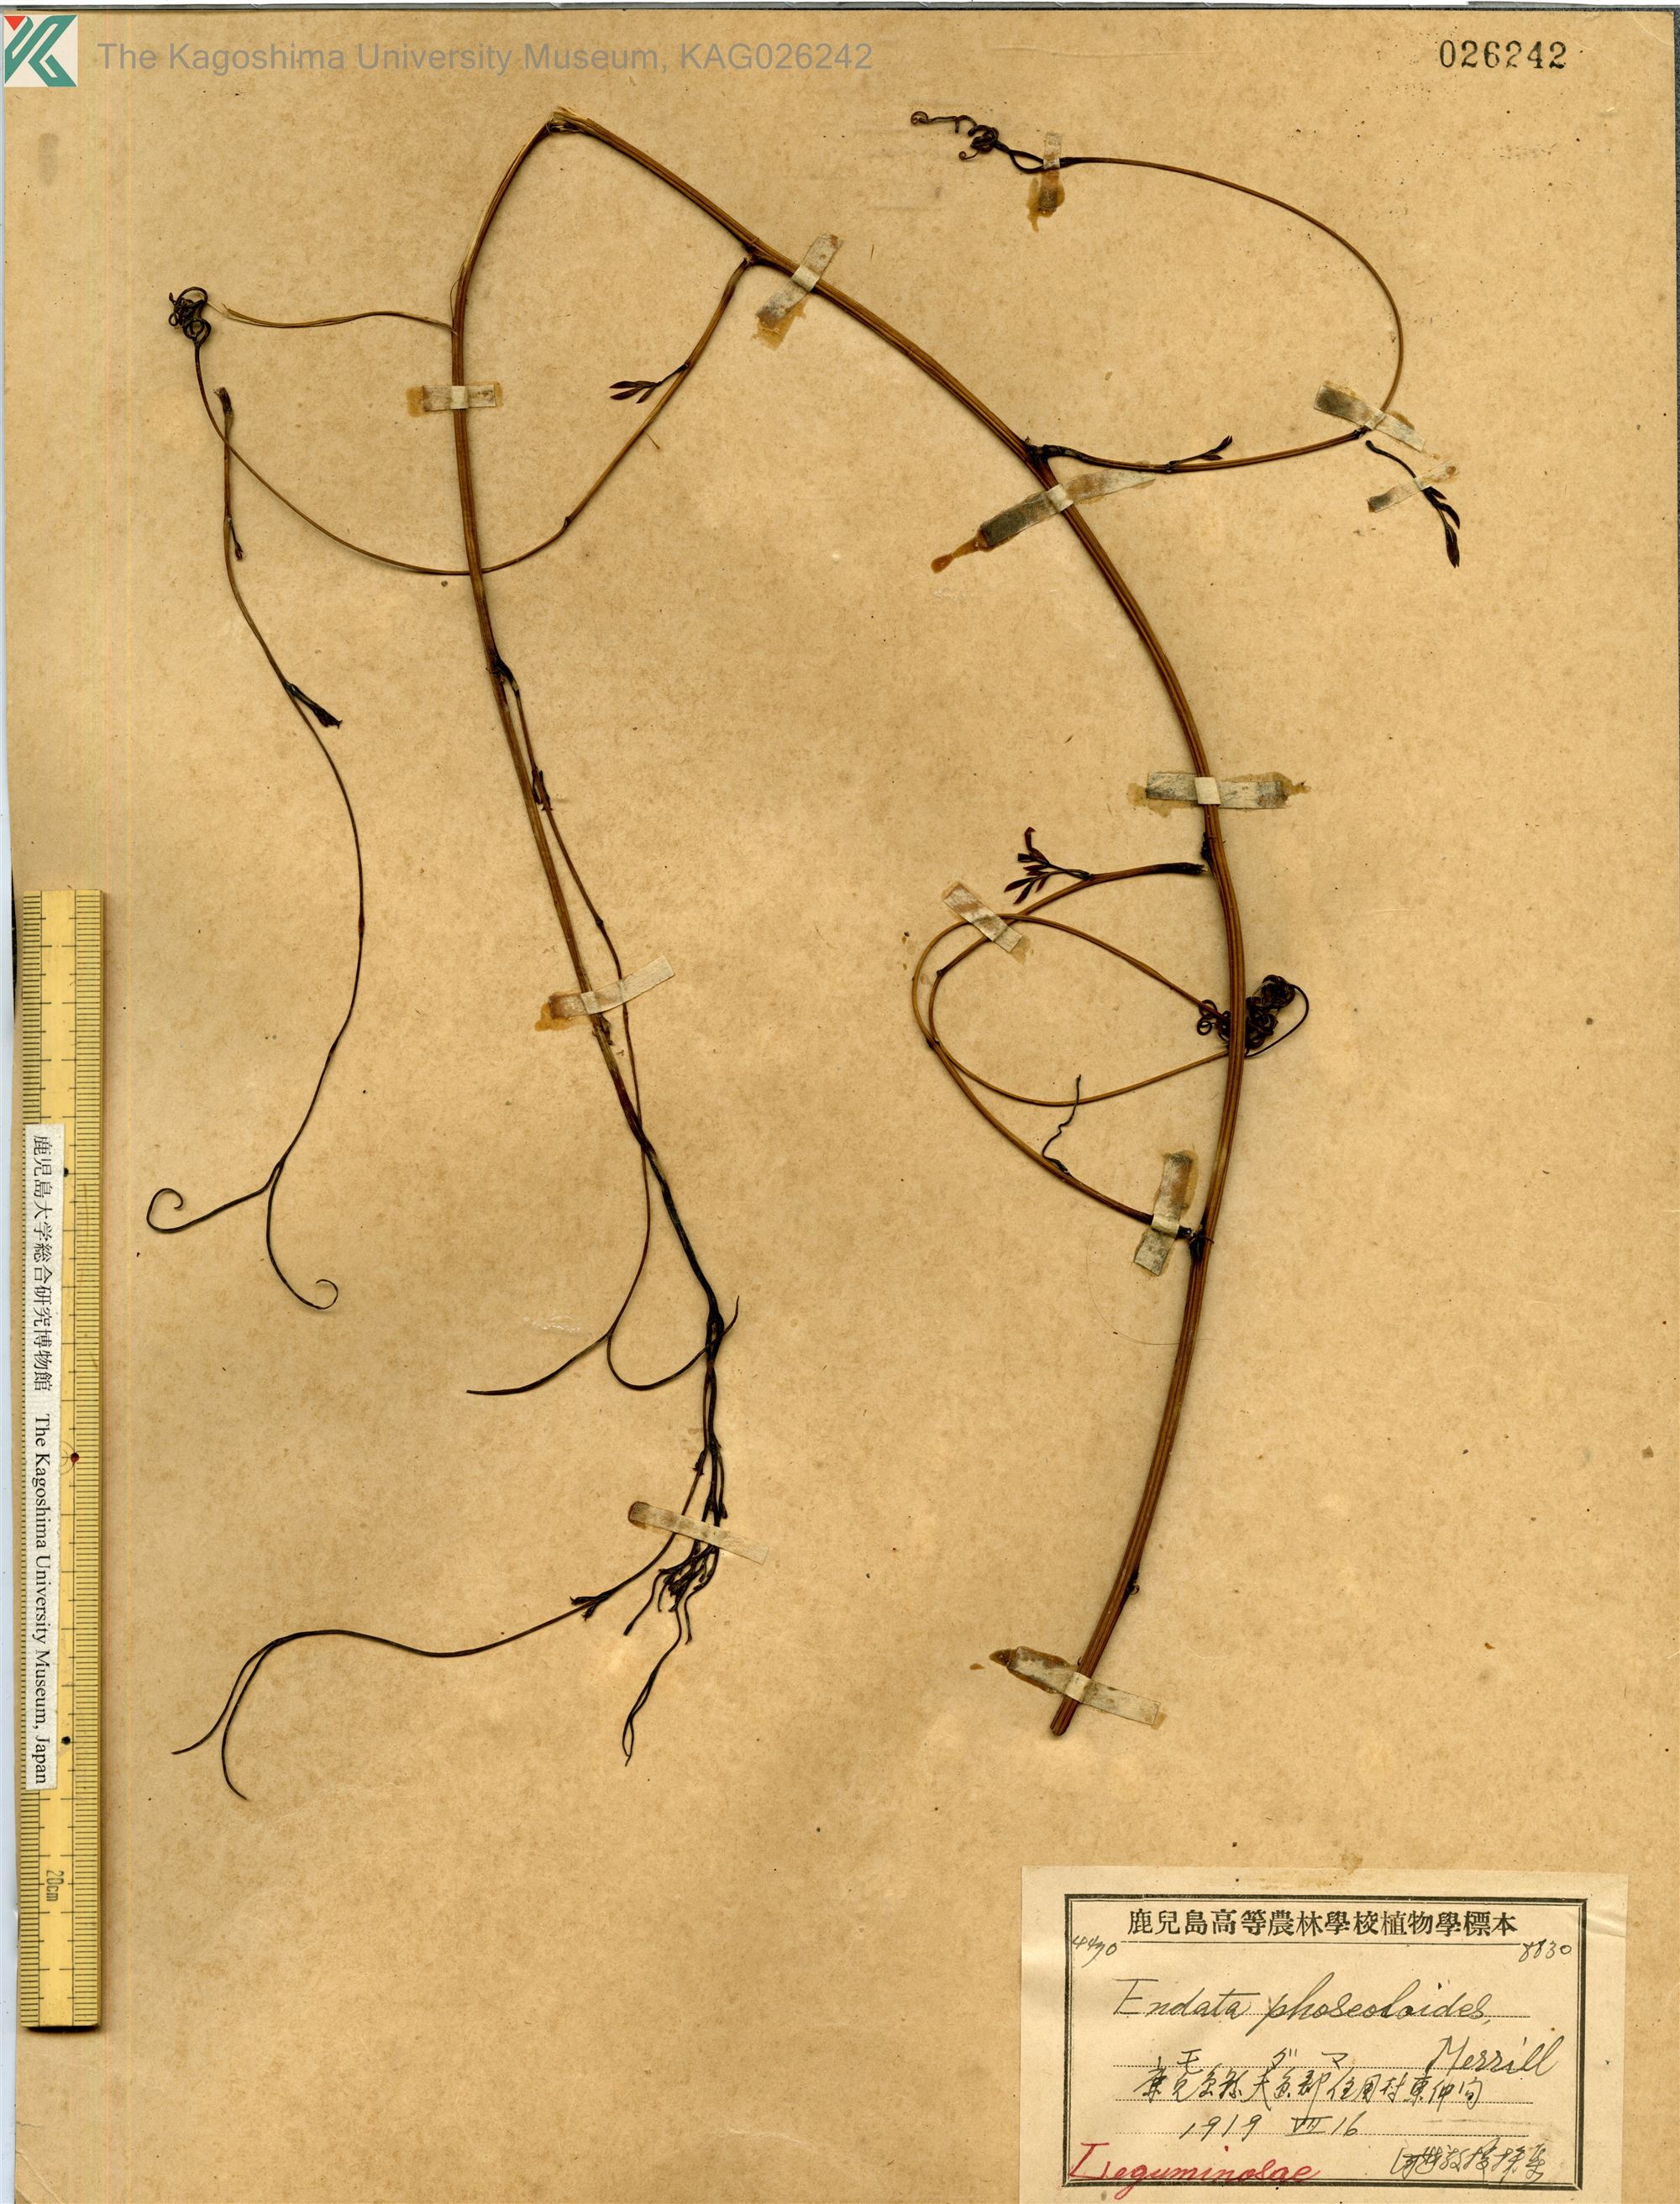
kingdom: Plantae
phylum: Tracheophyta
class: Magnoliopsida
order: Fabales
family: Fabaceae
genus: Entada
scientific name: Entada tonkinensis
